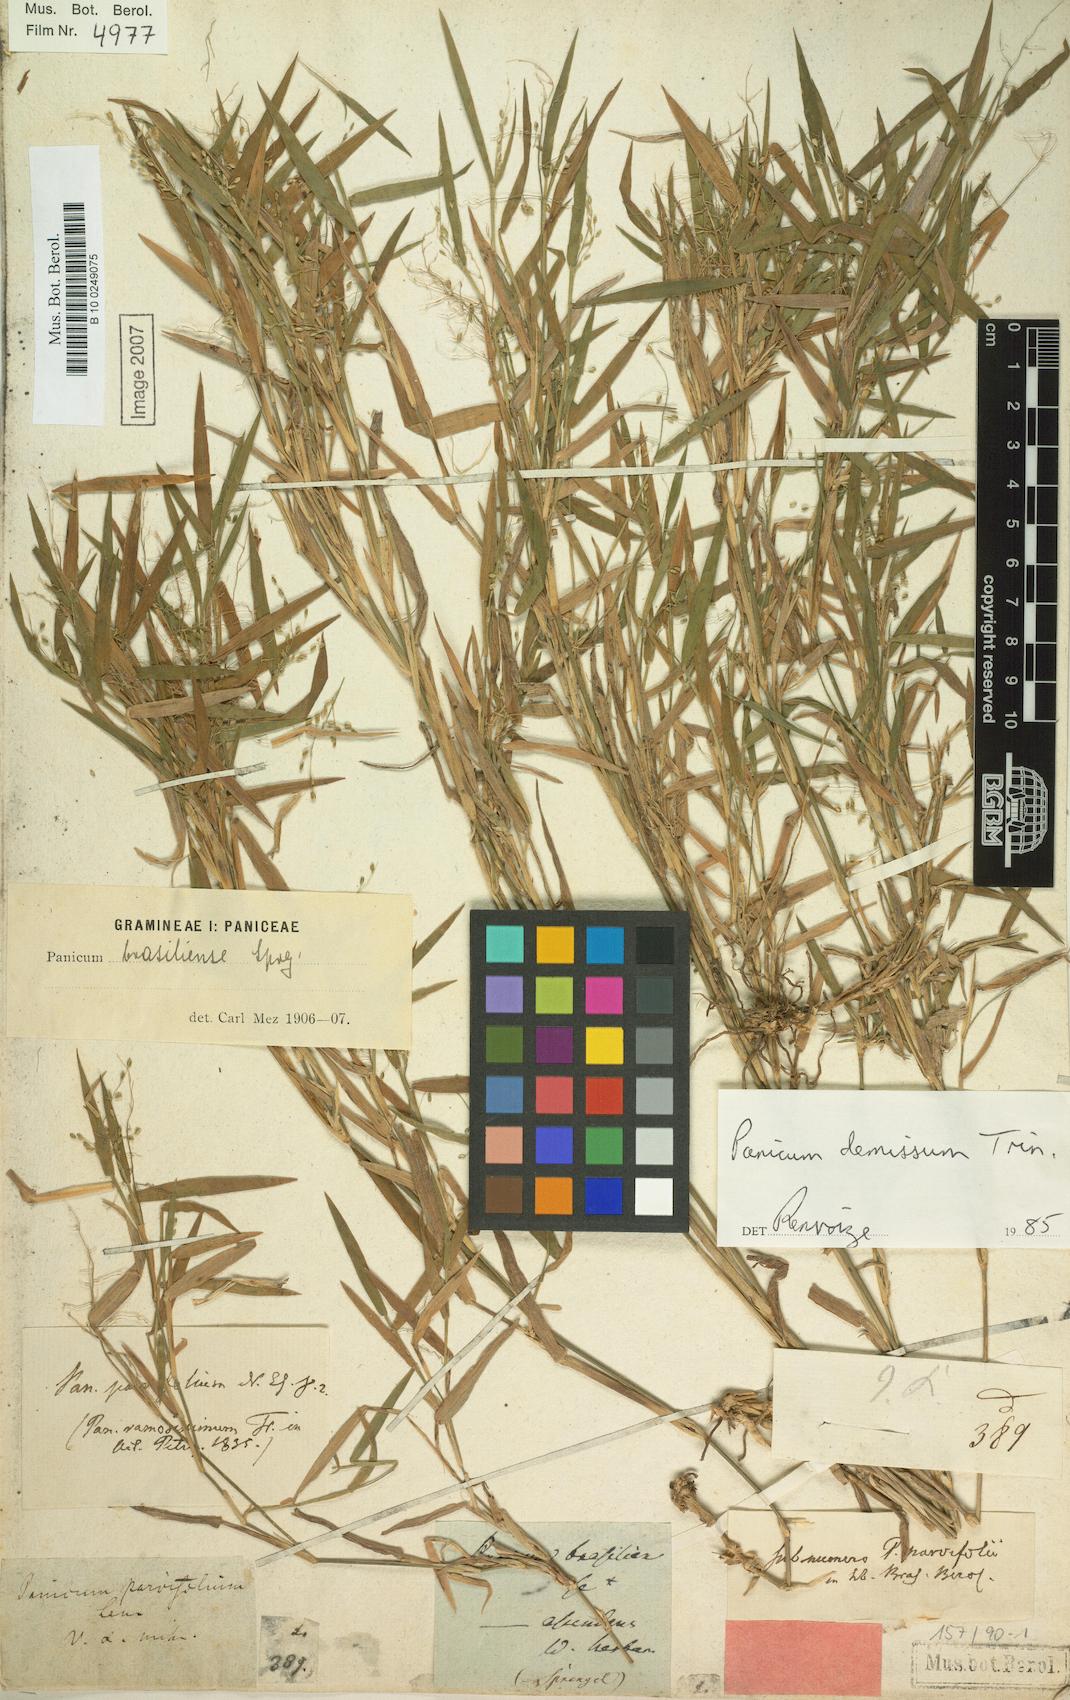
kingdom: Plantae
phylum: Tracheophyta
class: Liliopsida
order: Poales
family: Poaceae
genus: Setaria
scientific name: Setaria parviflora
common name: Knotroot bristle-grass
